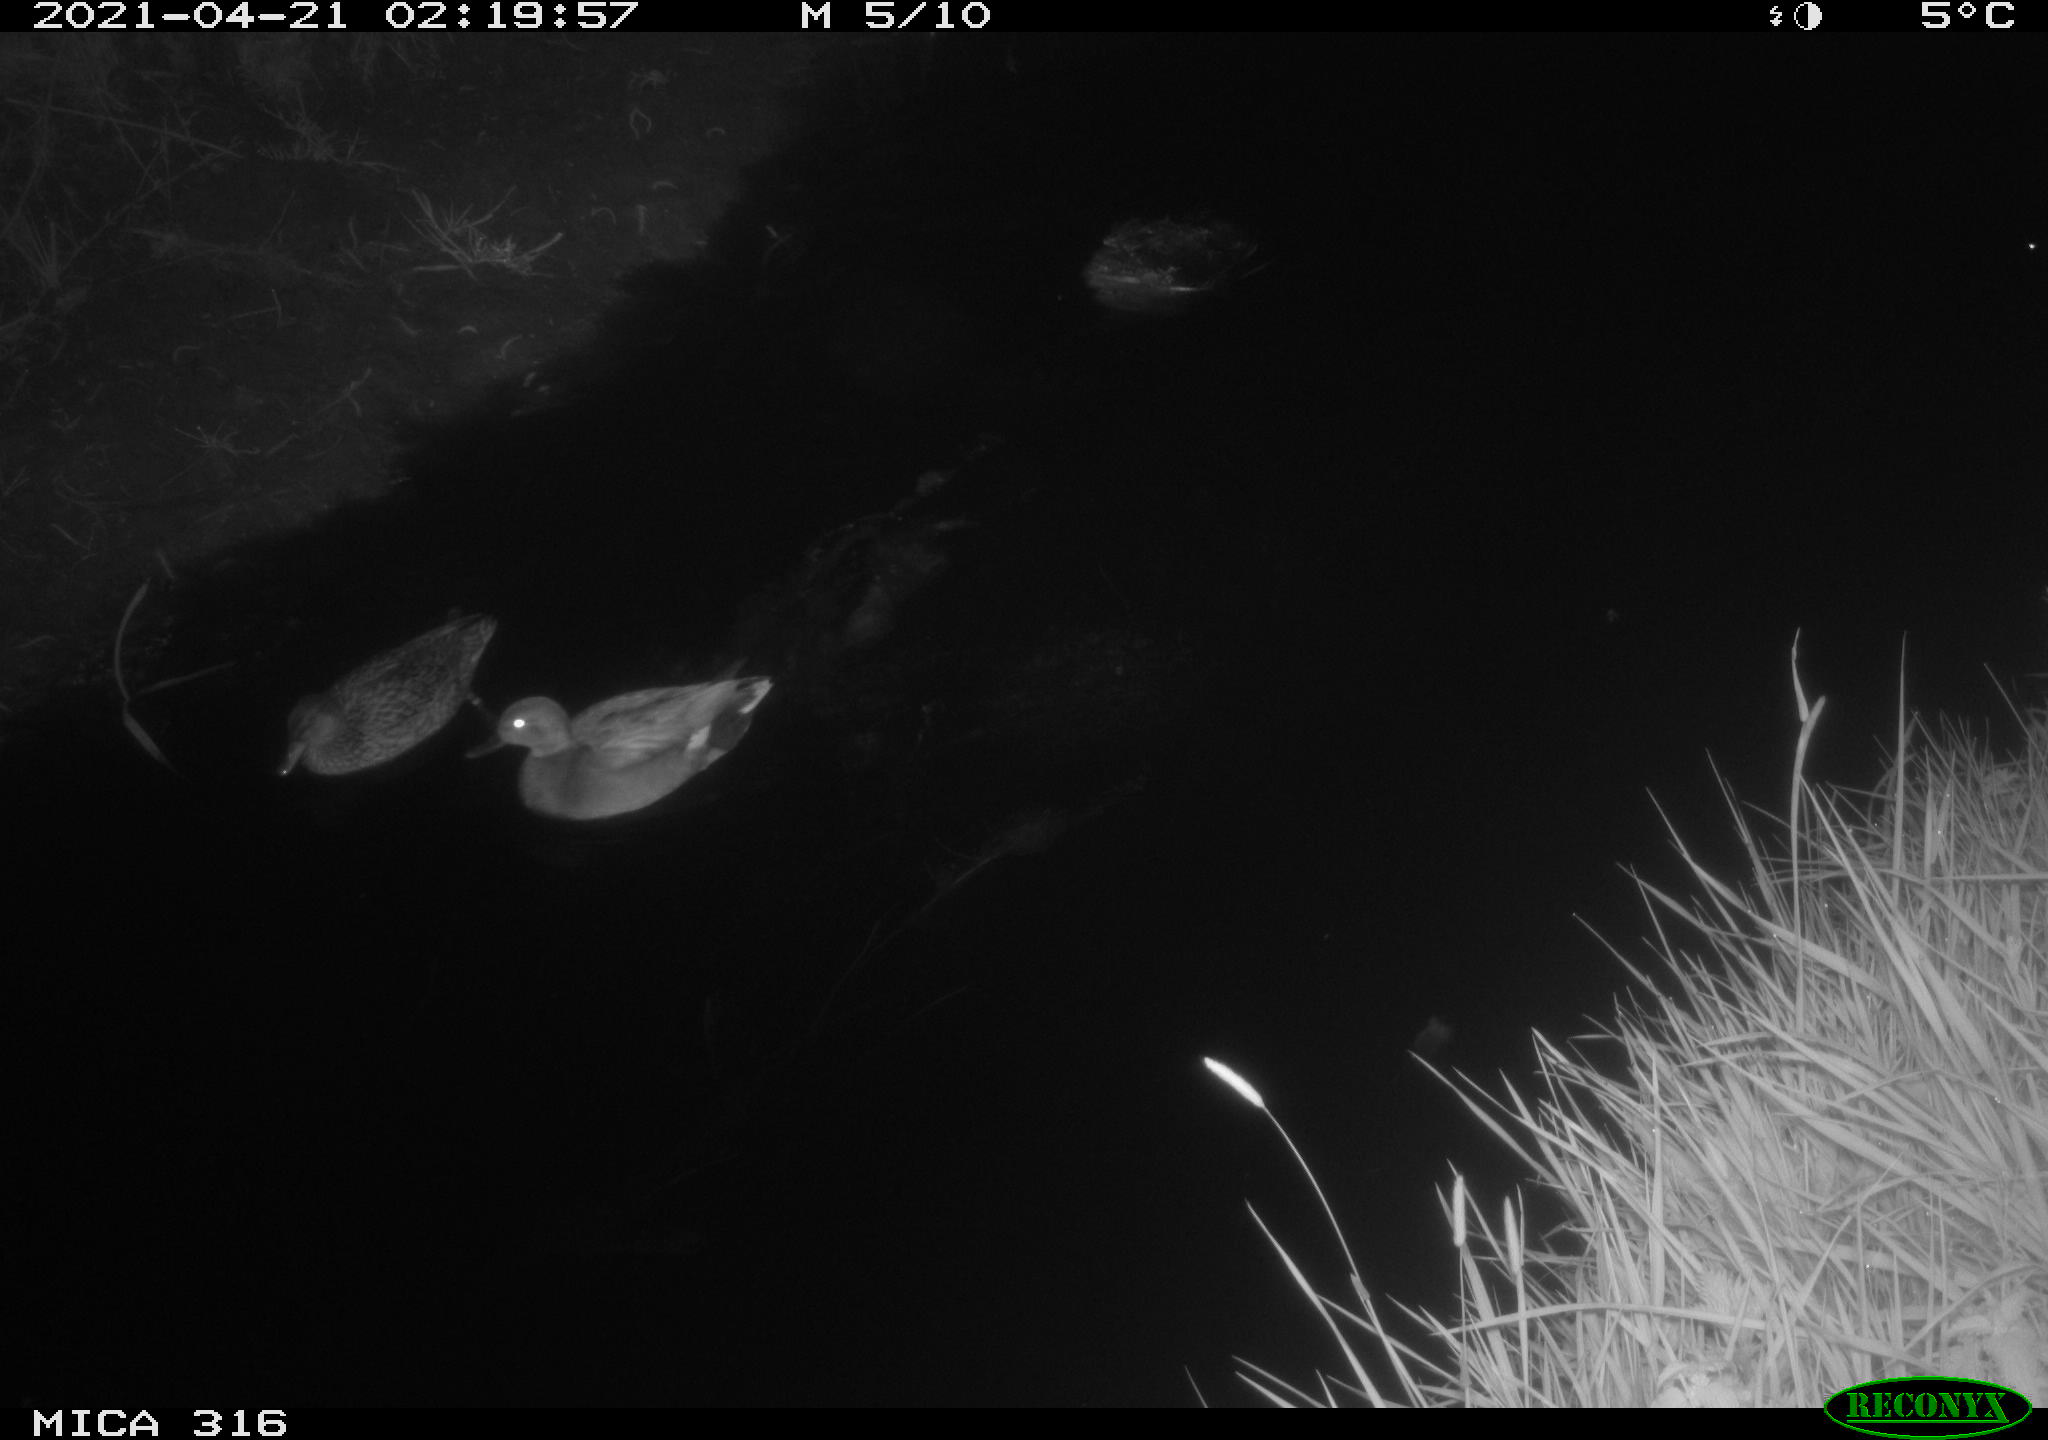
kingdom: Animalia
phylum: Chordata
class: Aves
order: Anseriformes
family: Anatidae
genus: Mareca
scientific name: Mareca strepera
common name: Gadwall
